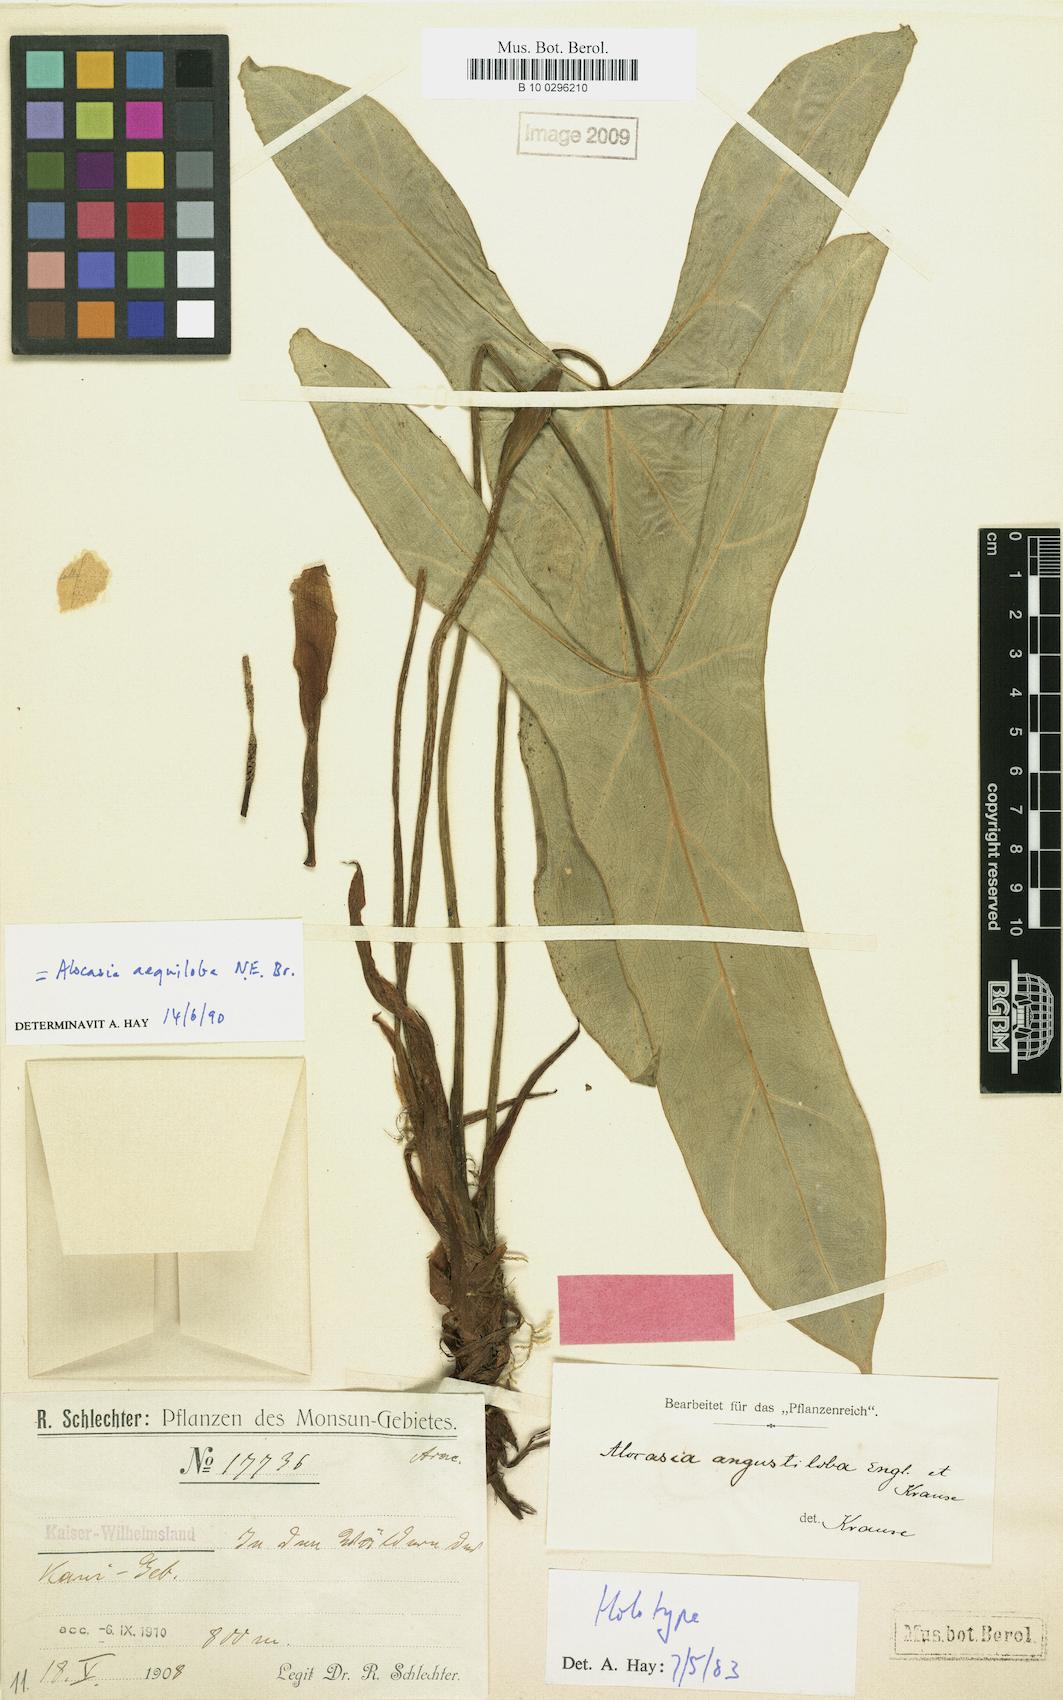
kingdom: Plantae
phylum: Tracheophyta
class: Liliopsida
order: Alismatales
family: Araceae
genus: Alocasia
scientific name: Alocasia aequiloba
